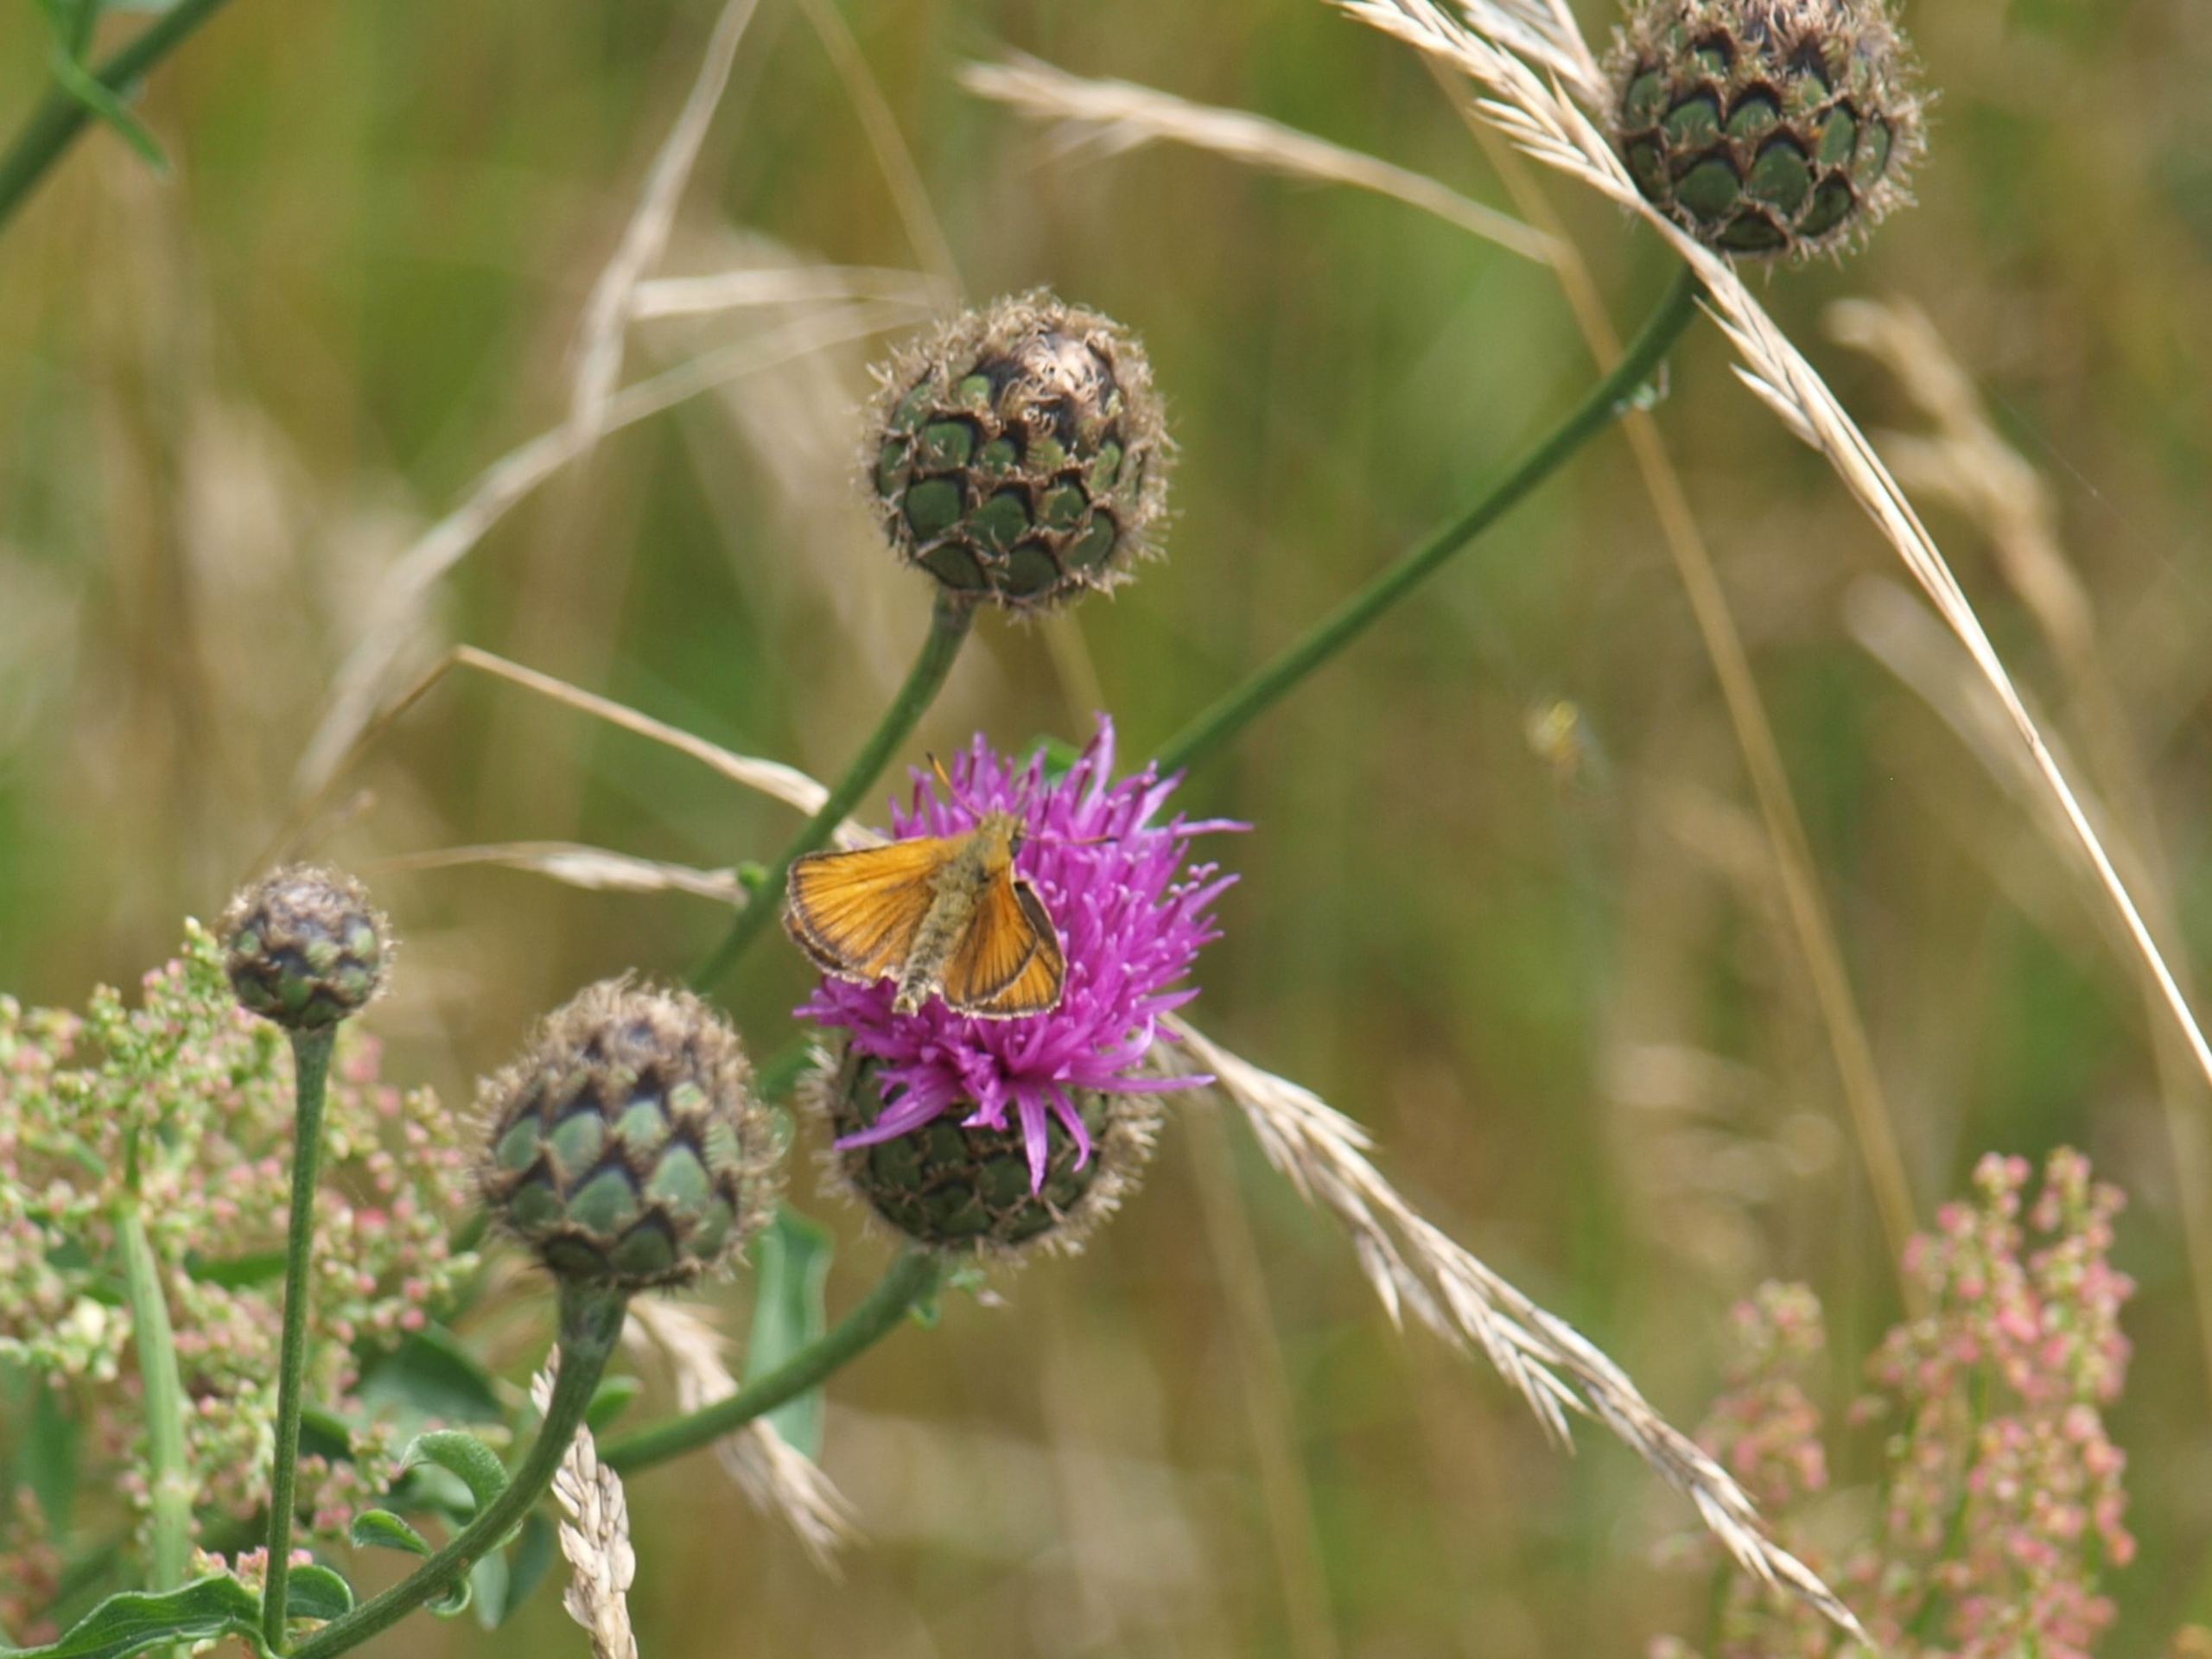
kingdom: Animalia
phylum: Arthropoda
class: Insecta
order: Lepidoptera
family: Hesperiidae
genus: Thymelicus
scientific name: Thymelicus lineola
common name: Stregbredpande
